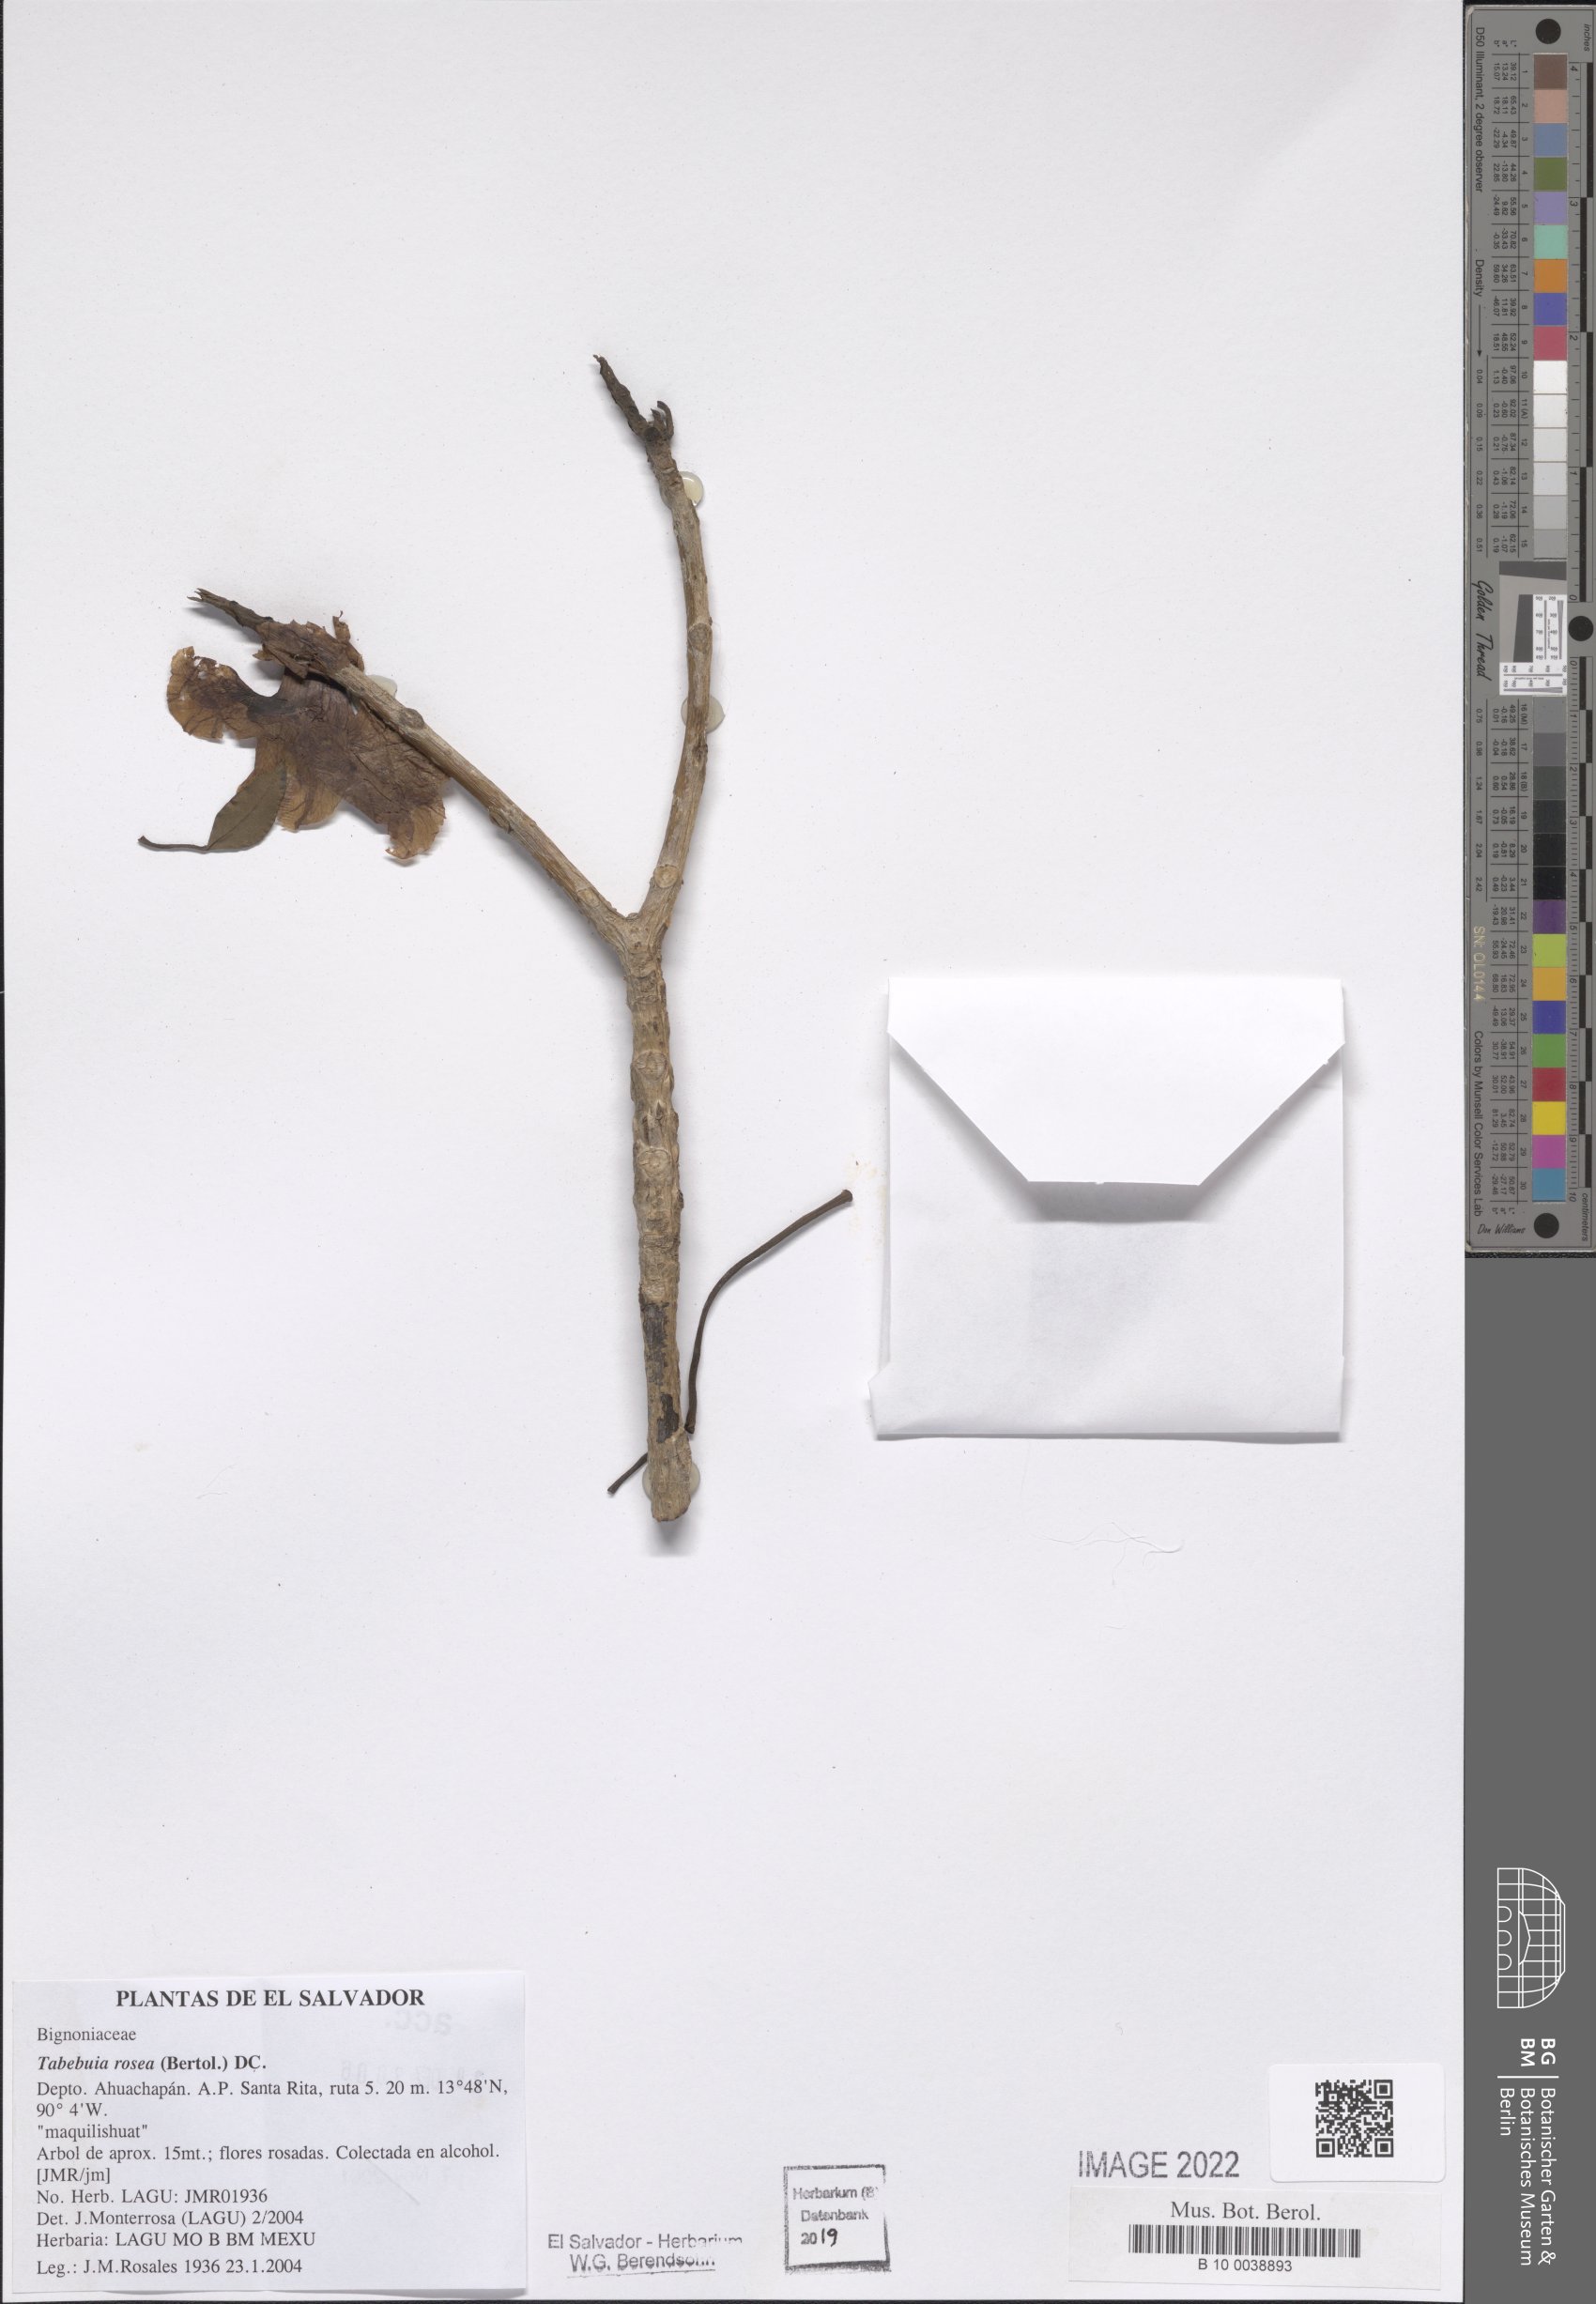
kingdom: Plantae
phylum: Tracheophyta
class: Magnoliopsida
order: Lamiales
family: Bignoniaceae
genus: Tabebuia
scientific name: Tabebuia rosea
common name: Pink poui
